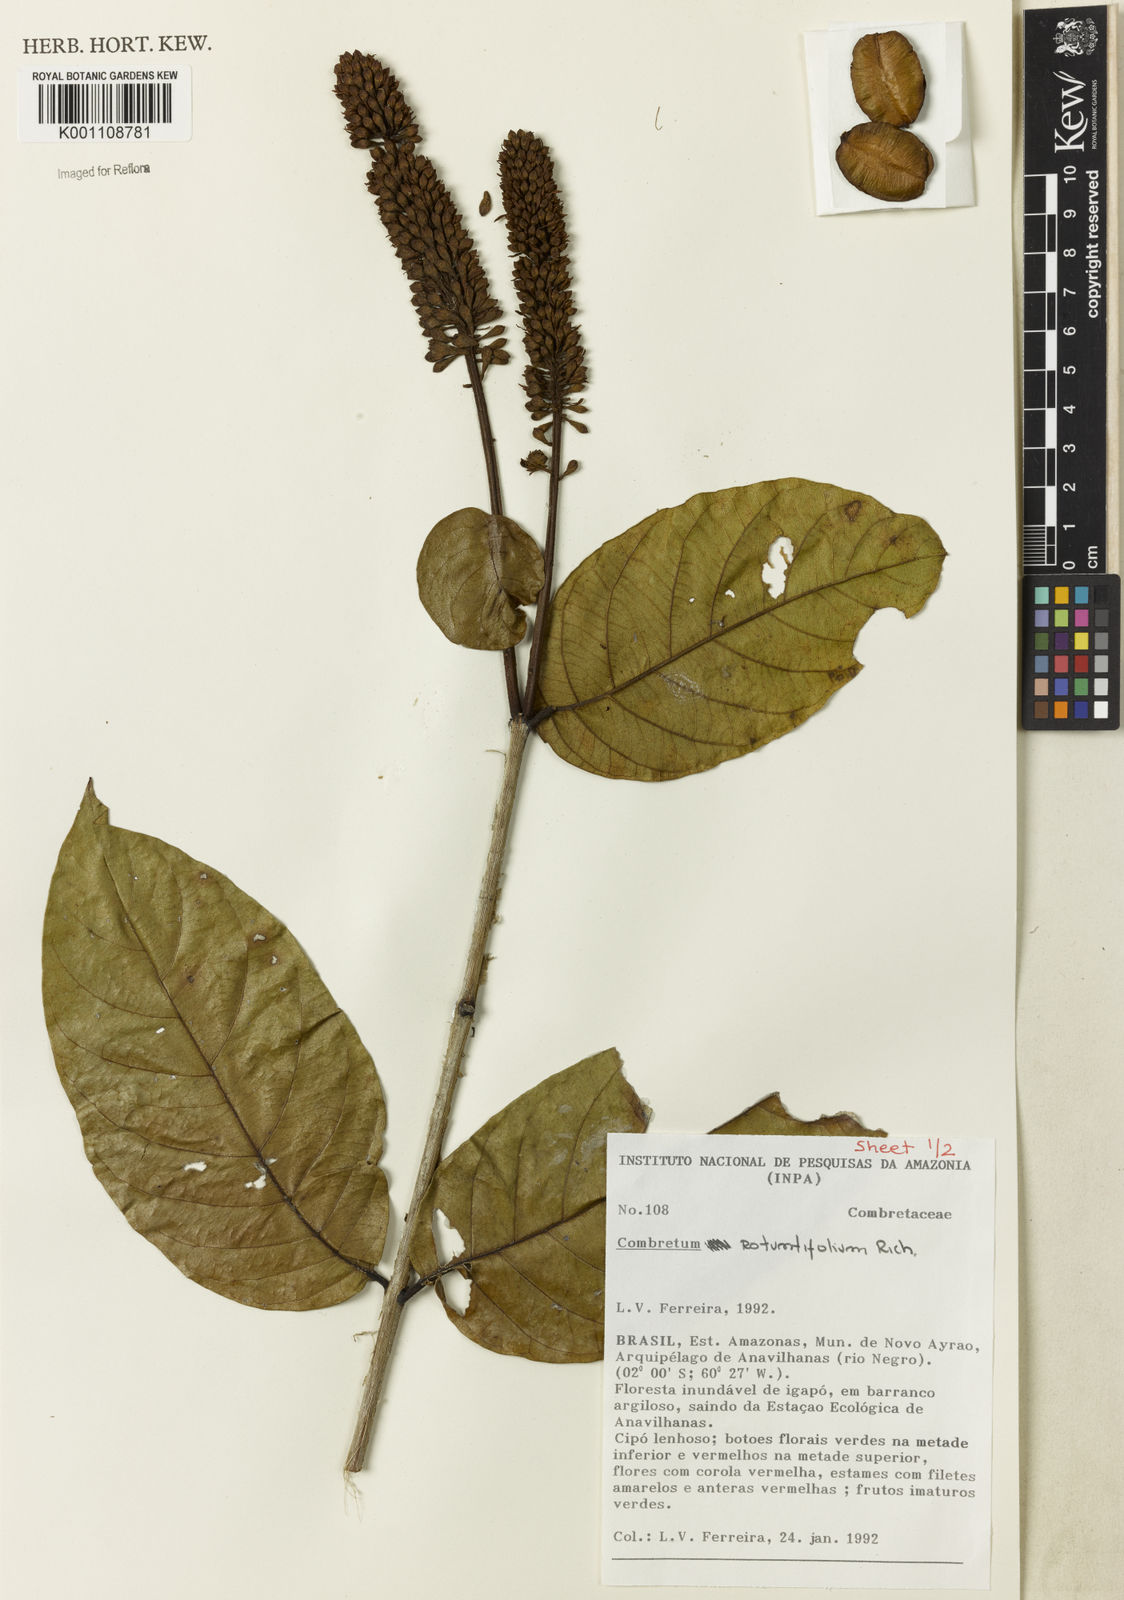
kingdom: Plantae
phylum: Tracheophyta
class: Magnoliopsida
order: Myrtales
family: Combretaceae
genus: Combretum
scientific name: Combretum rotundifolium
